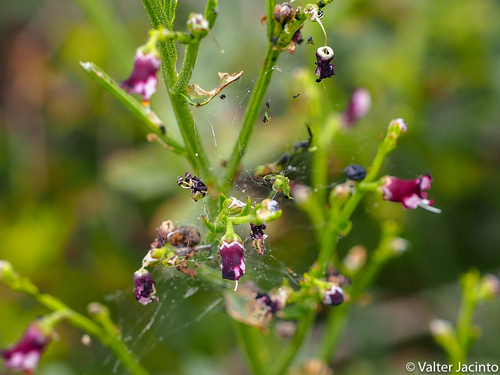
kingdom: Plantae
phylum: Tracheophyta
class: Magnoliopsida
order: Lamiales
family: Scrophulariaceae
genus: Scrophularia
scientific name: Scrophularia canina
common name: French figwort
